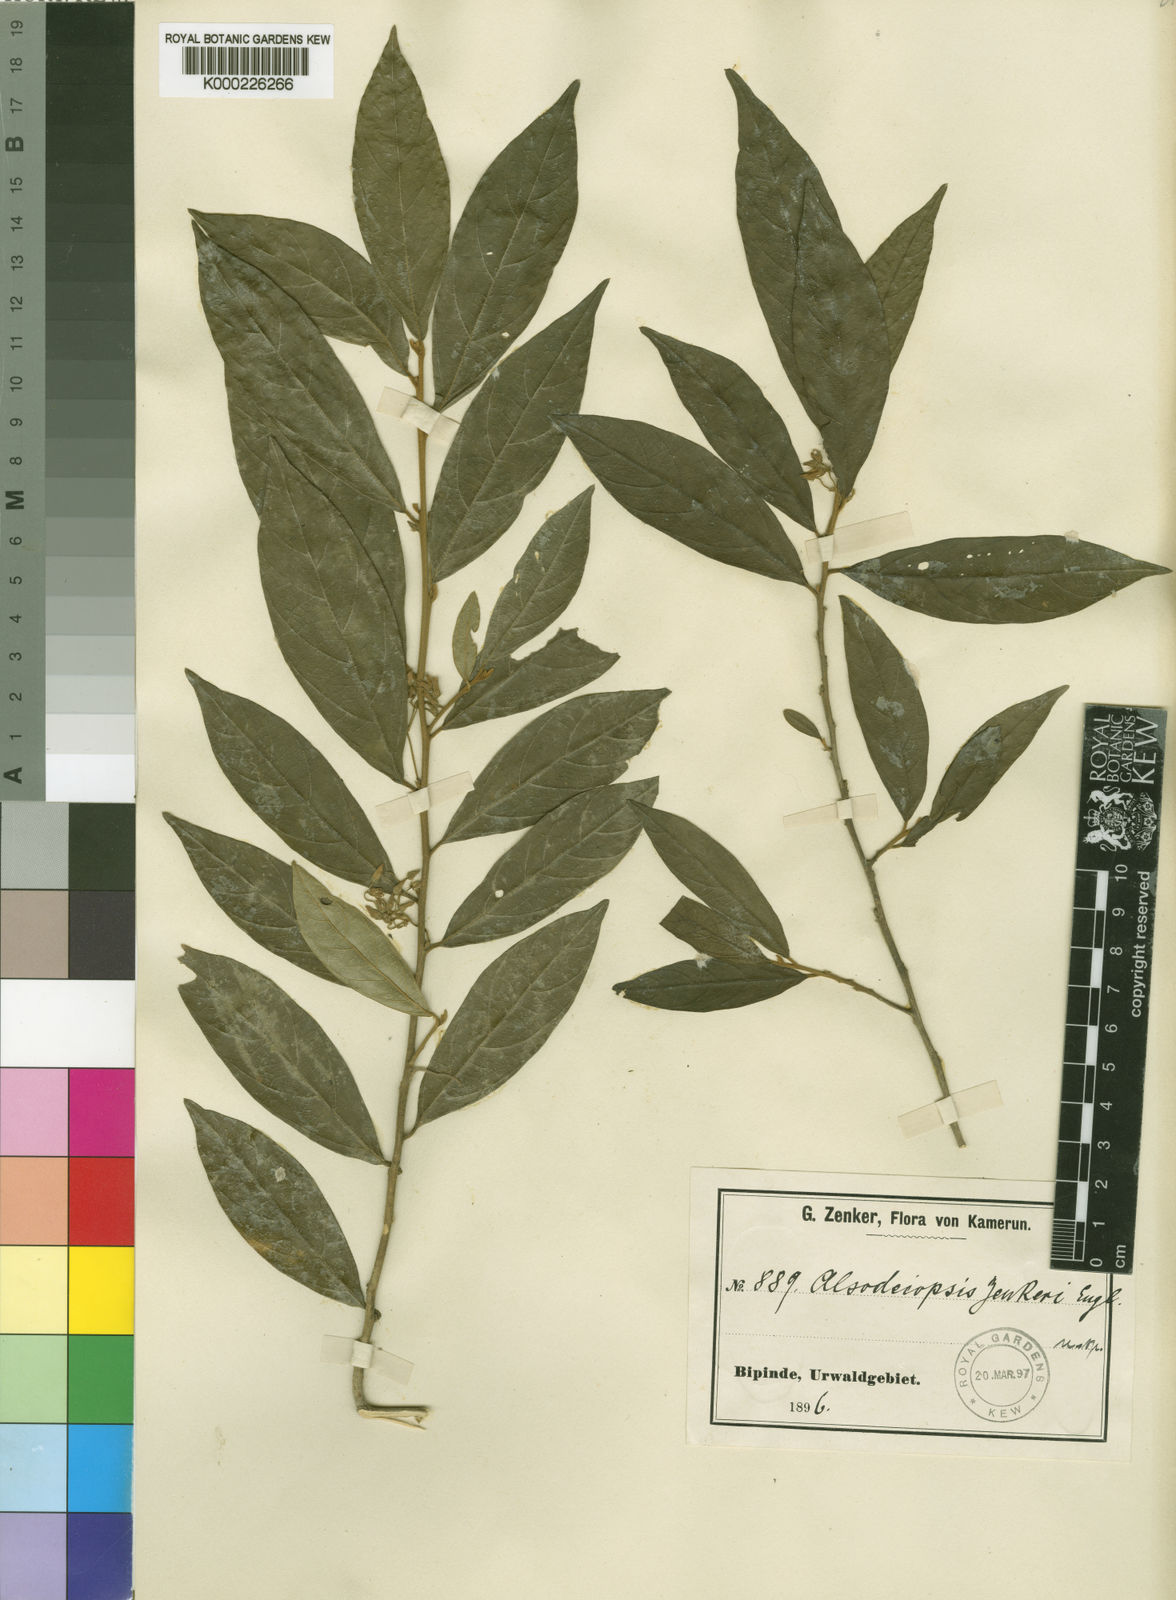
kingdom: Plantae
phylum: Tracheophyta
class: Magnoliopsida
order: Icacinales
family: Icacinaceae
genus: Alsodeiopsis
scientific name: Alsodeiopsis zenkeri
